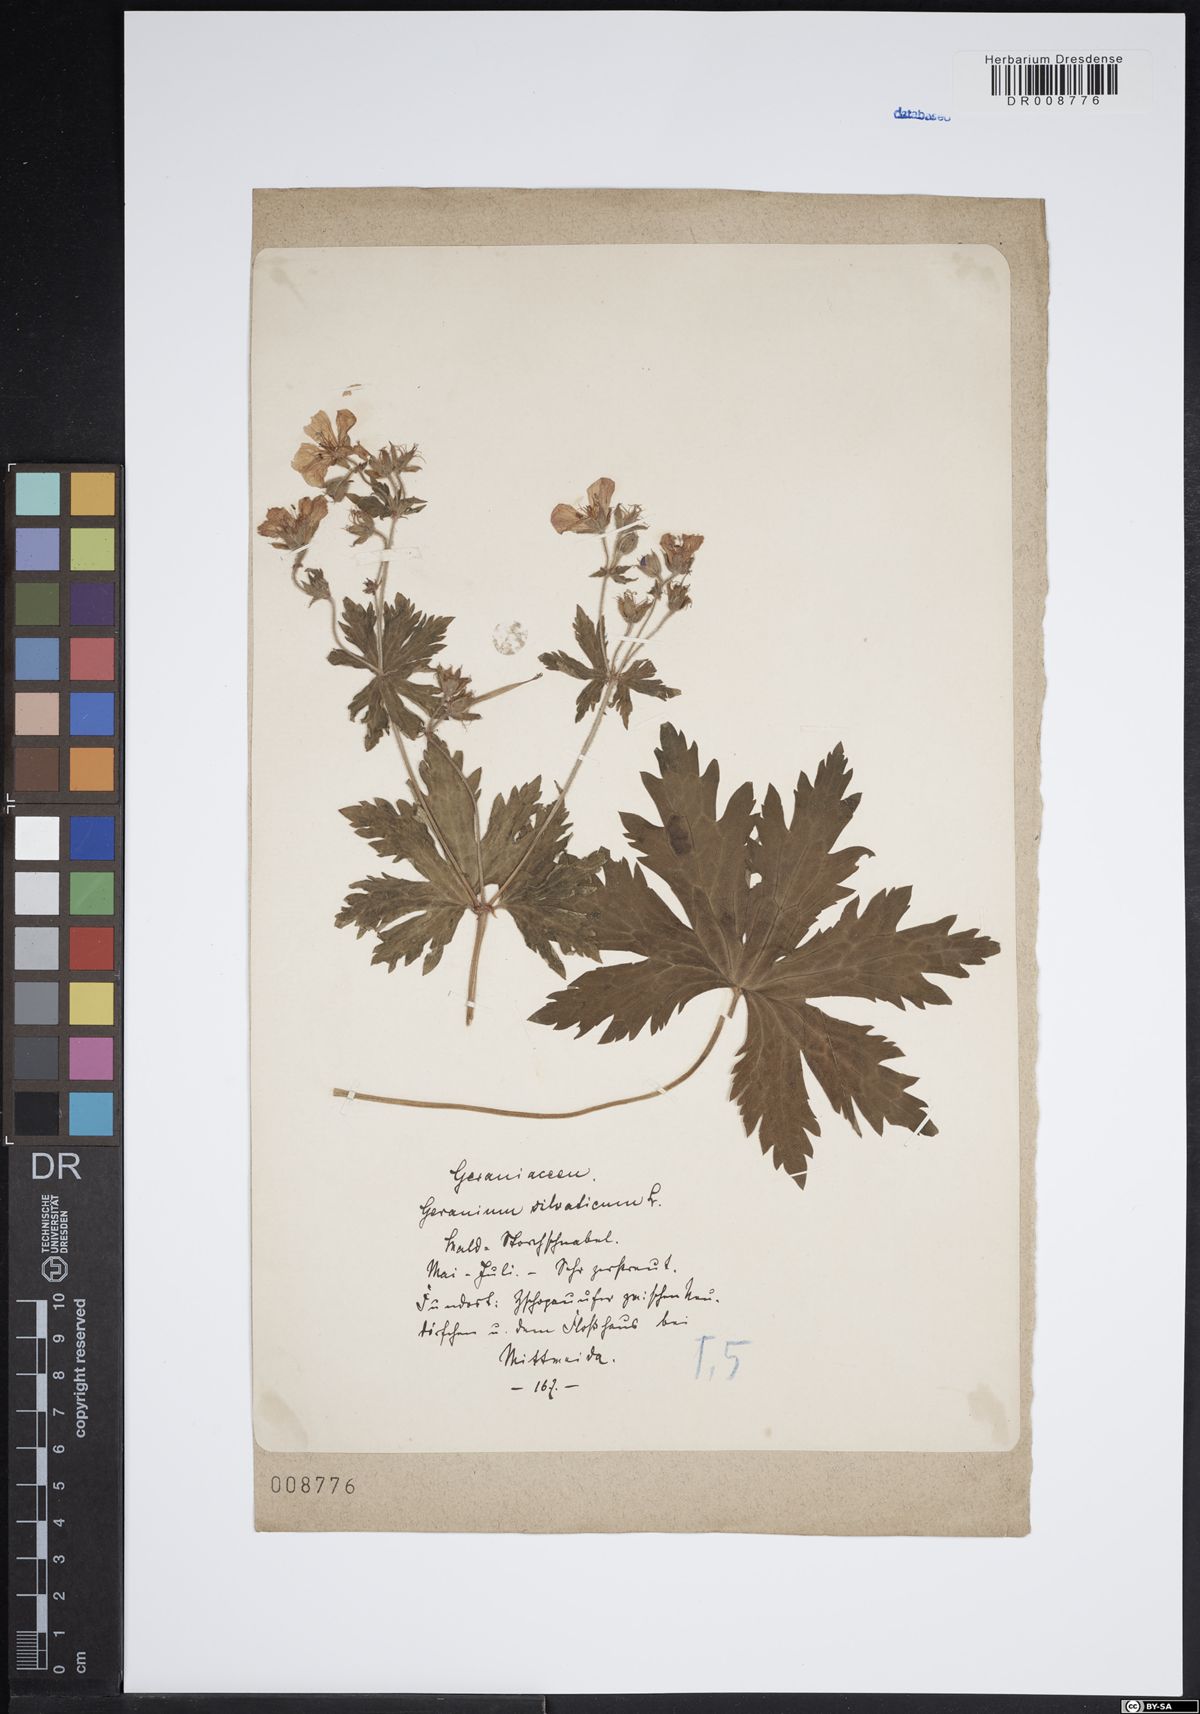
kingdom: Plantae
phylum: Tracheophyta
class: Magnoliopsida
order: Geraniales
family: Geraniaceae
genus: Geranium
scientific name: Geranium sylvaticum
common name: Wood crane's-bill
